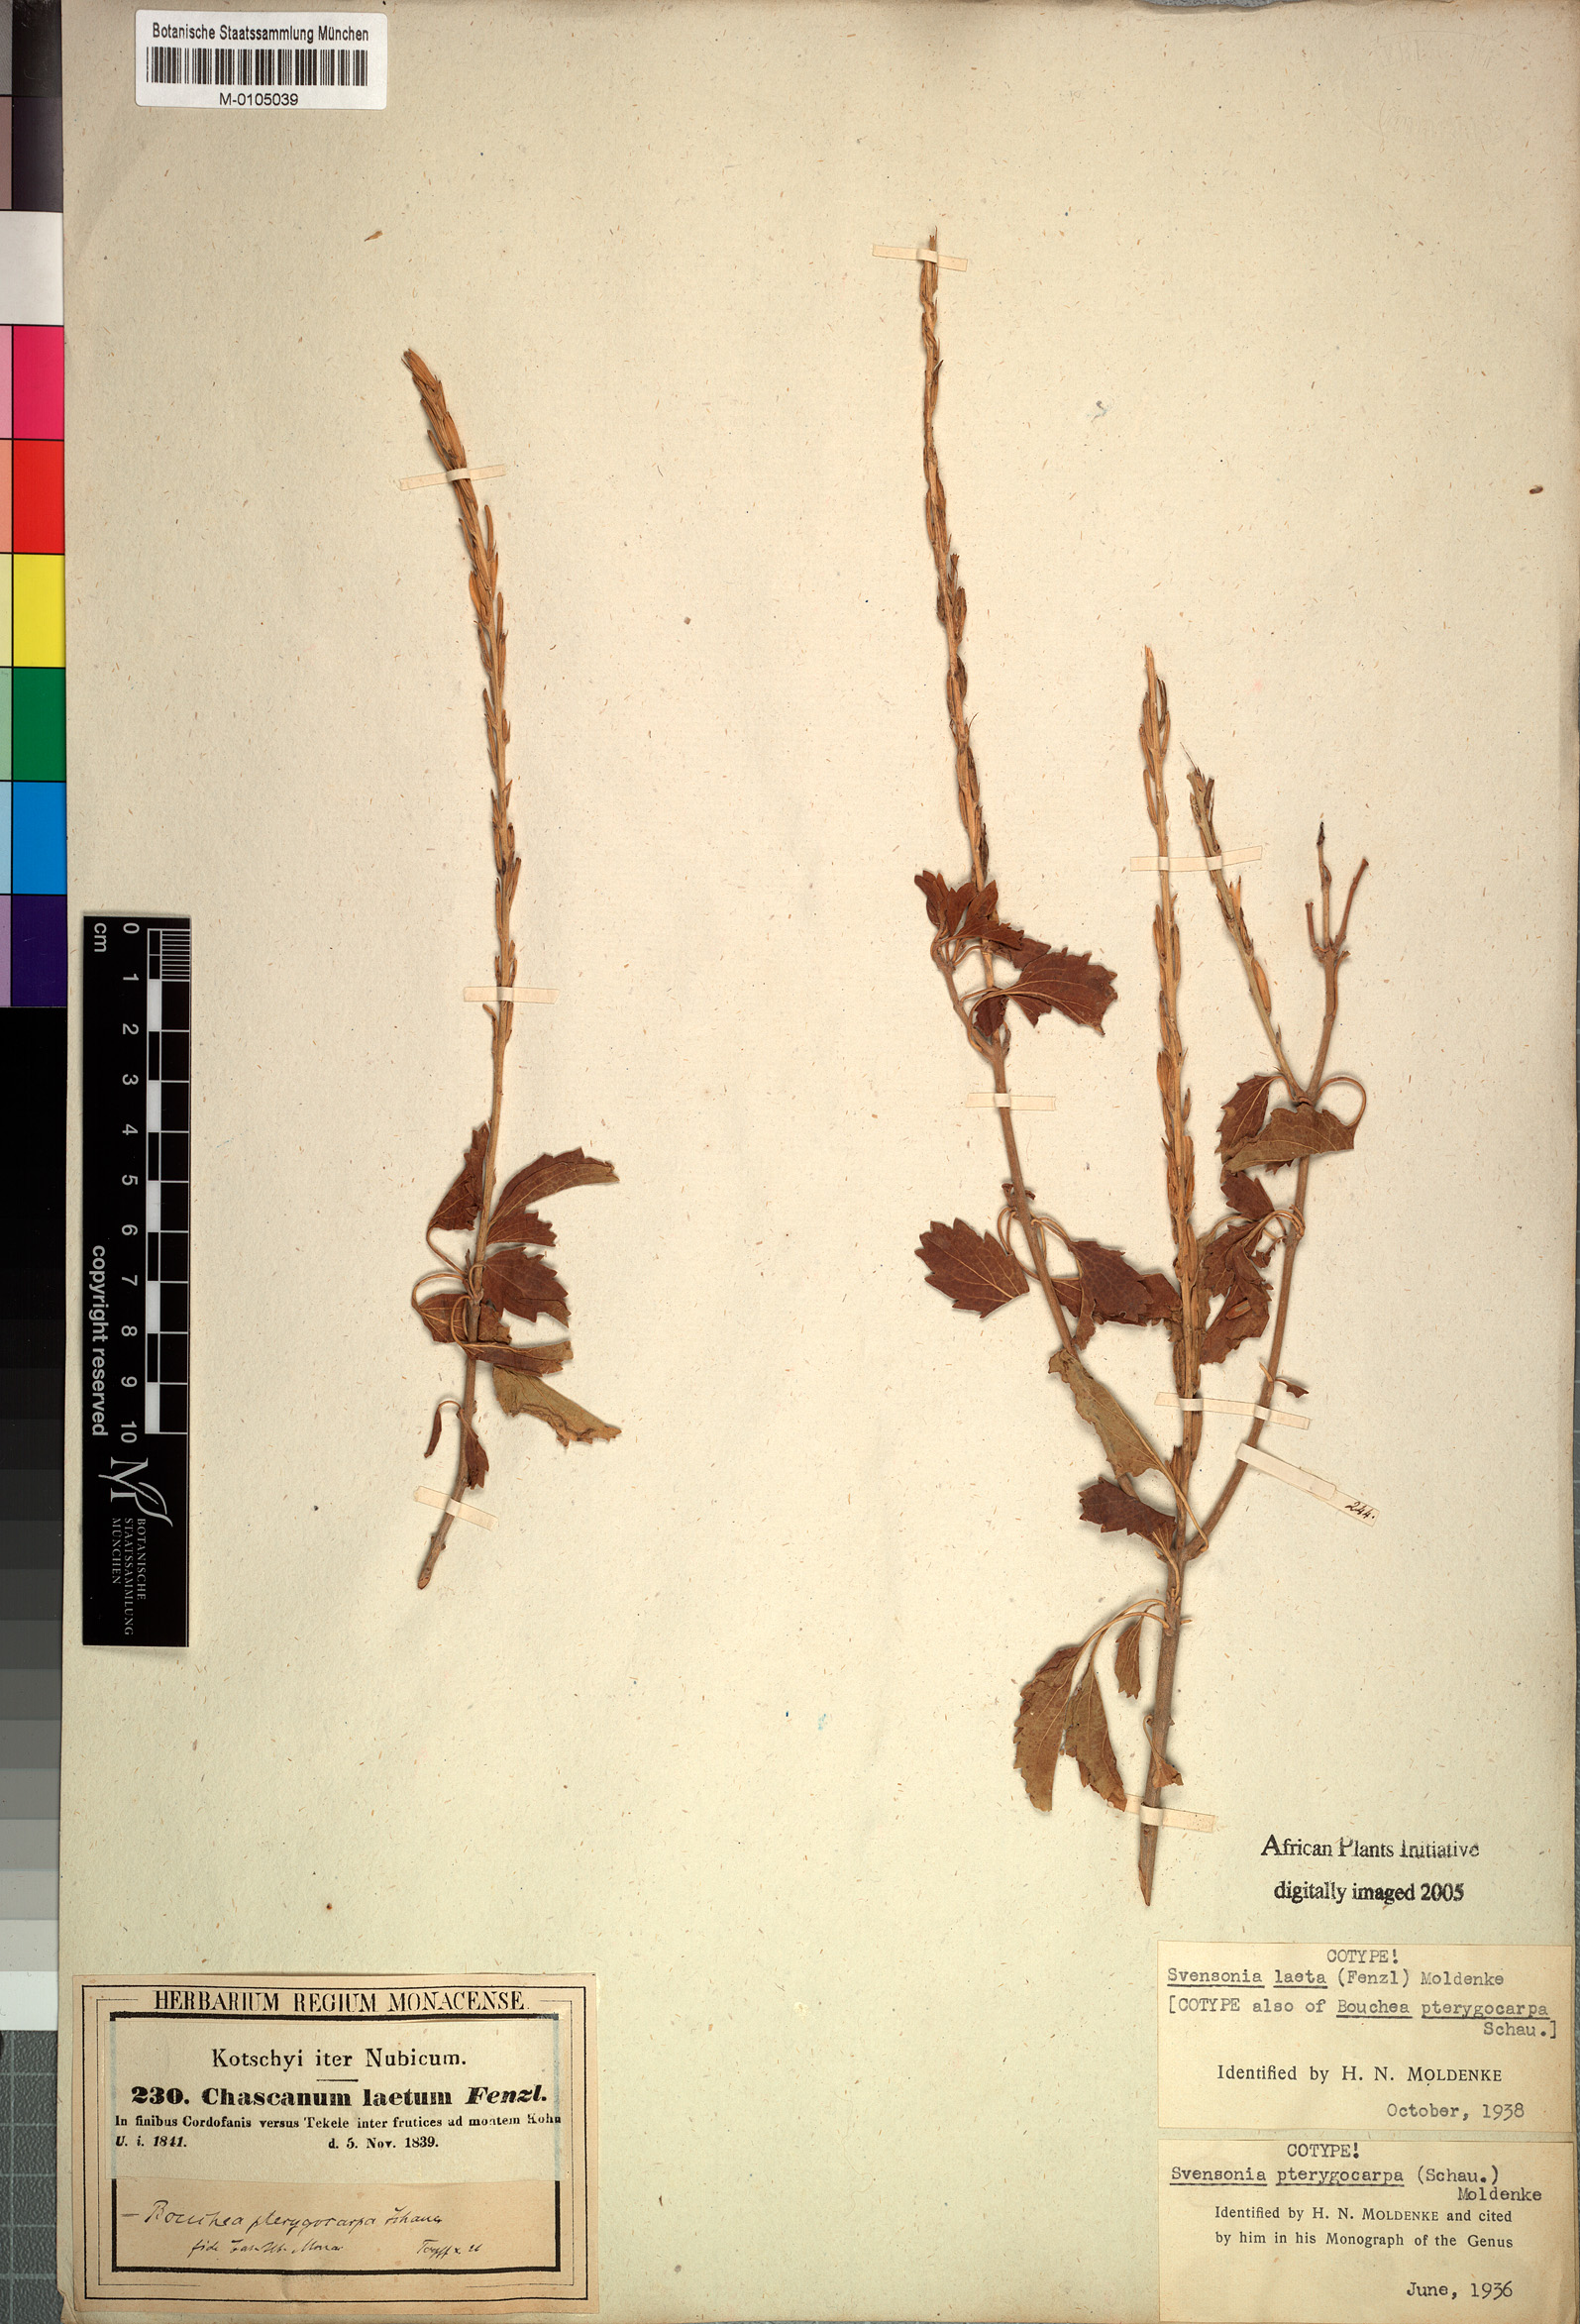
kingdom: Plantae
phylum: Tracheophyta
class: Magnoliopsida
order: Lamiales
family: Verbenaceae
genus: Chascanum
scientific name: Chascanum laetum
